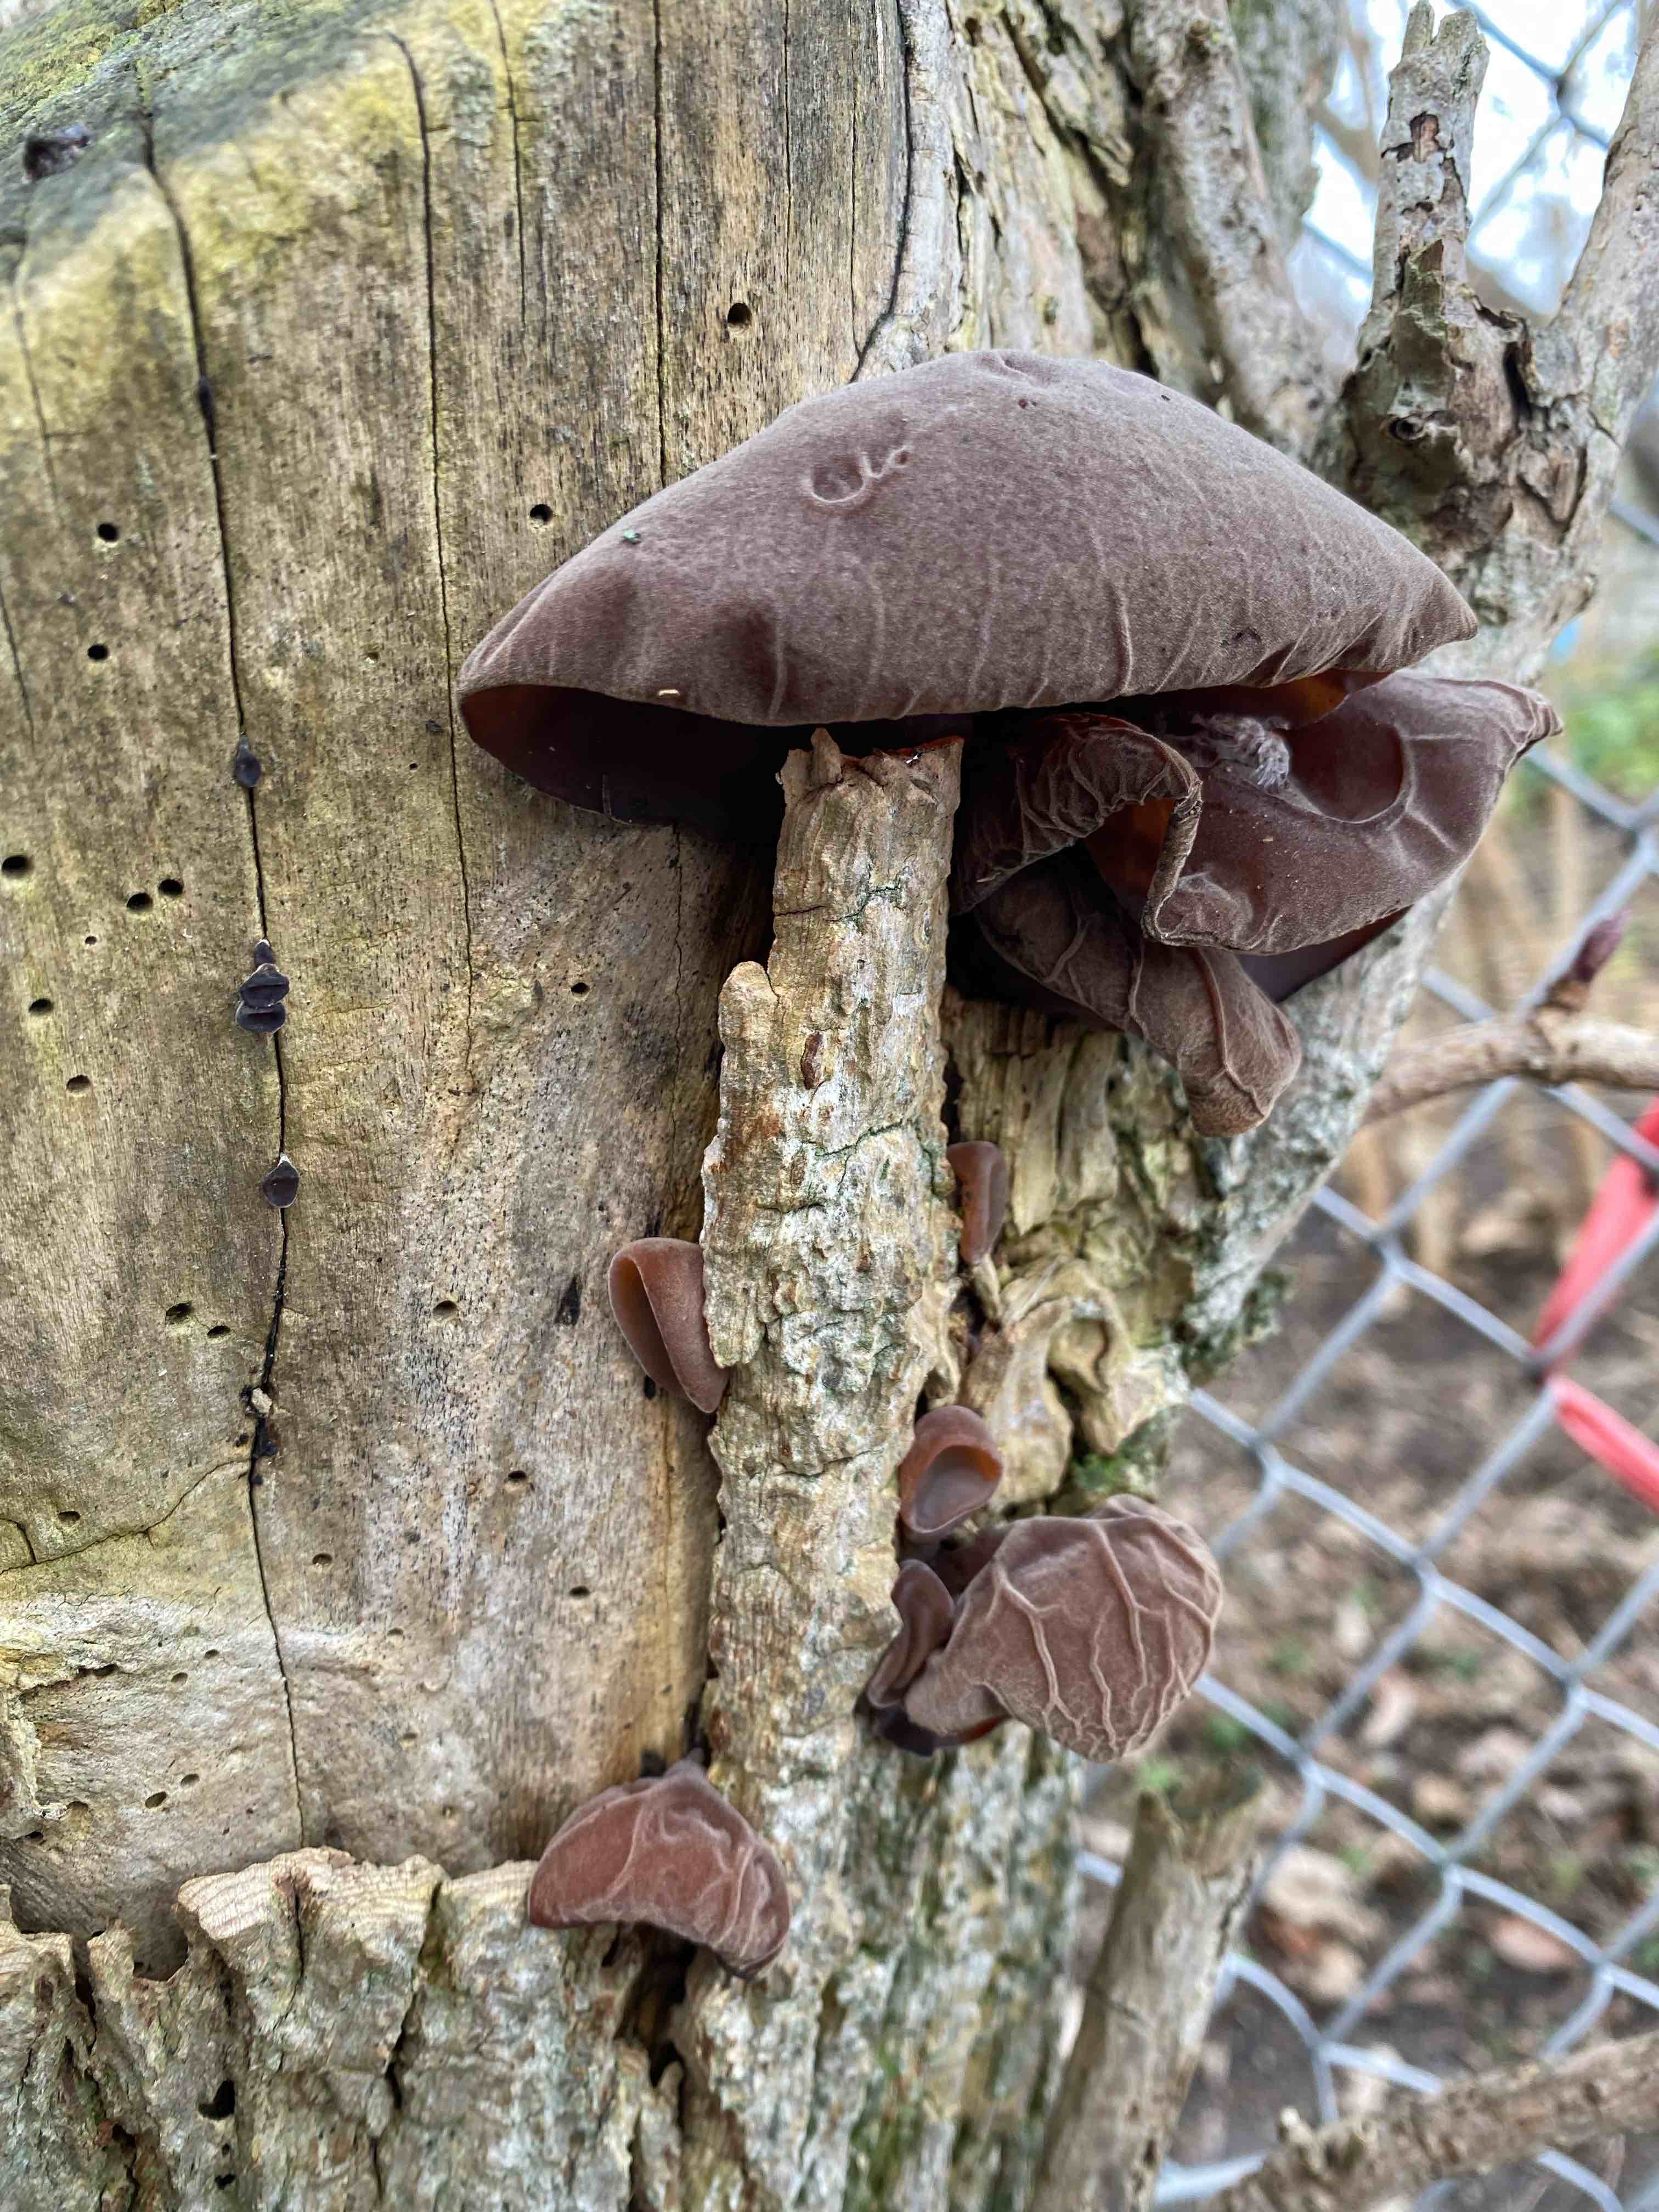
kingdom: Fungi
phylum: Basidiomycota
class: Agaricomycetes
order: Auriculariales
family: Auriculariaceae
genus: Auricularia
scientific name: Auricularia auricula-judae
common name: almindelig judasøre
